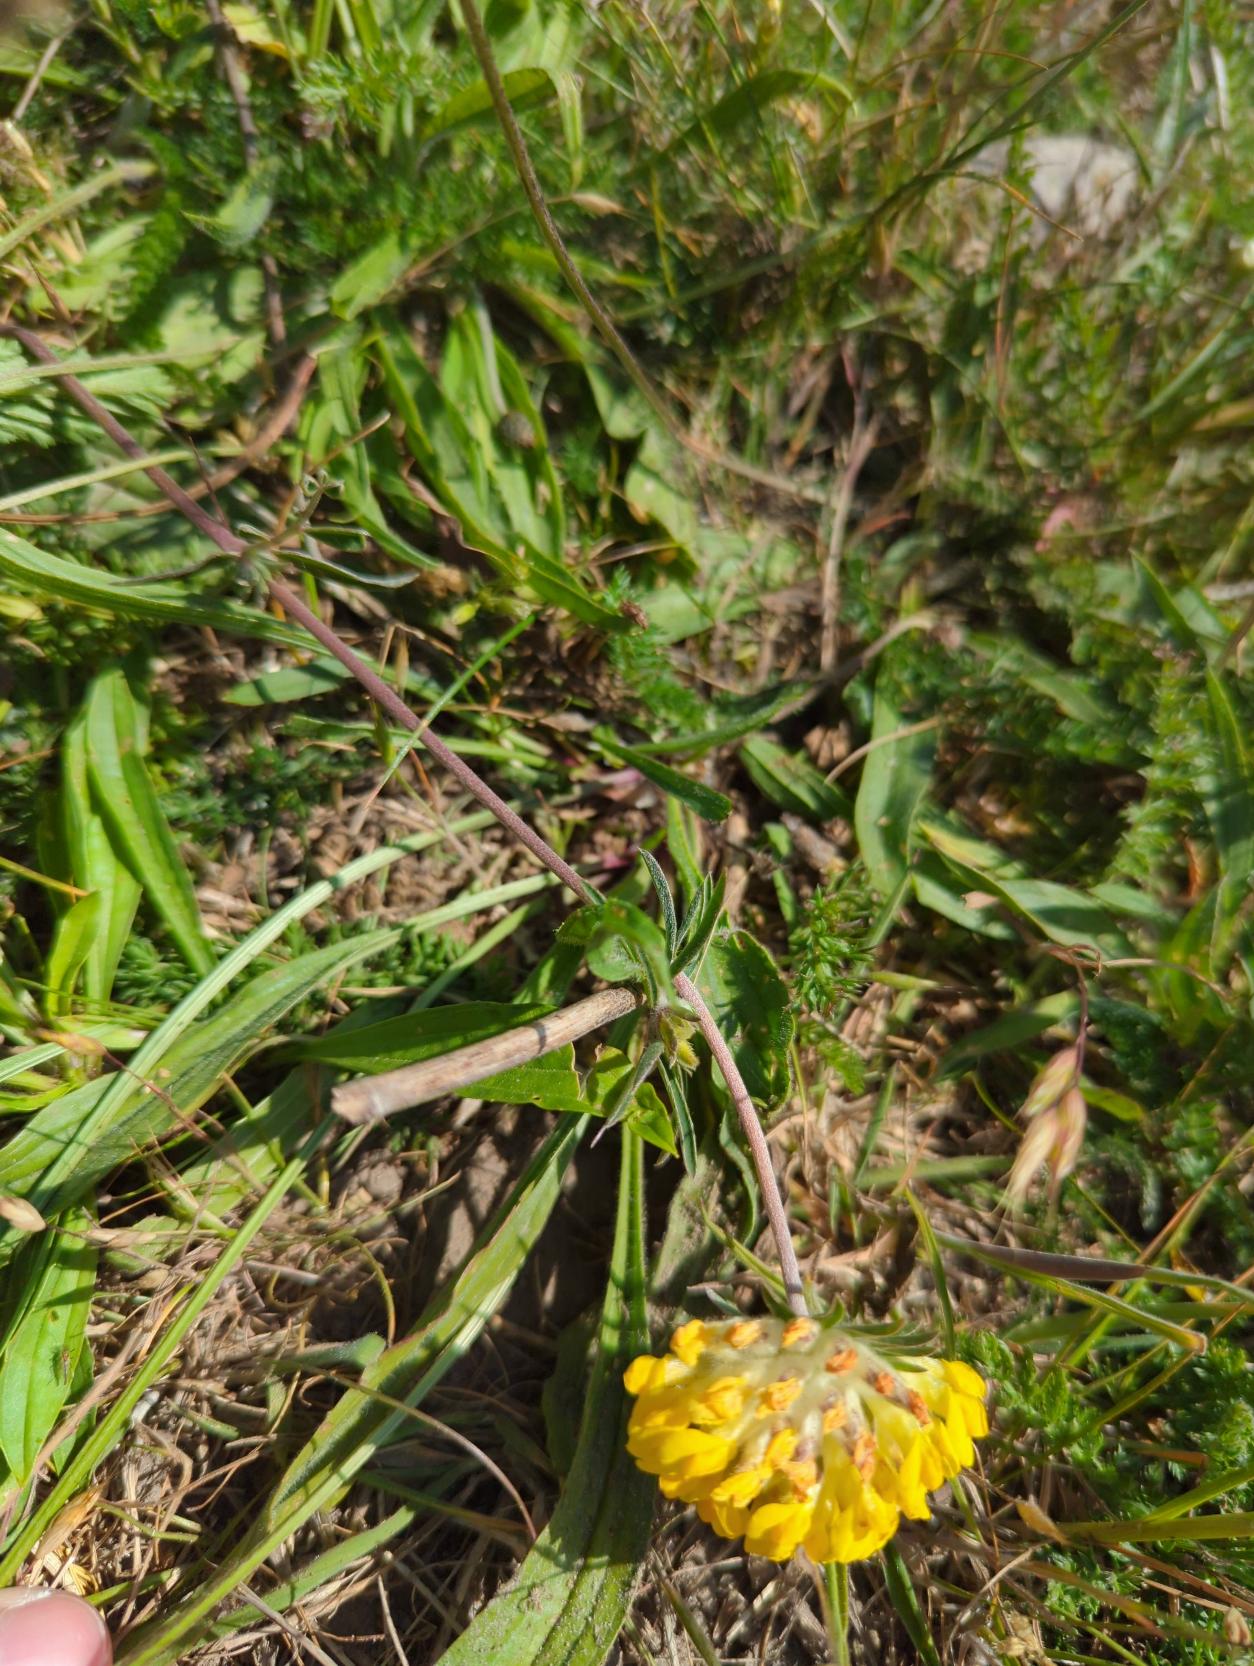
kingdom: Plantae
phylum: Tracheophyta
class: Magnoliopsida
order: Fabales
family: Fabaceae
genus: Anthyllis
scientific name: Anthyllis vulneraria
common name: Rundbælg
